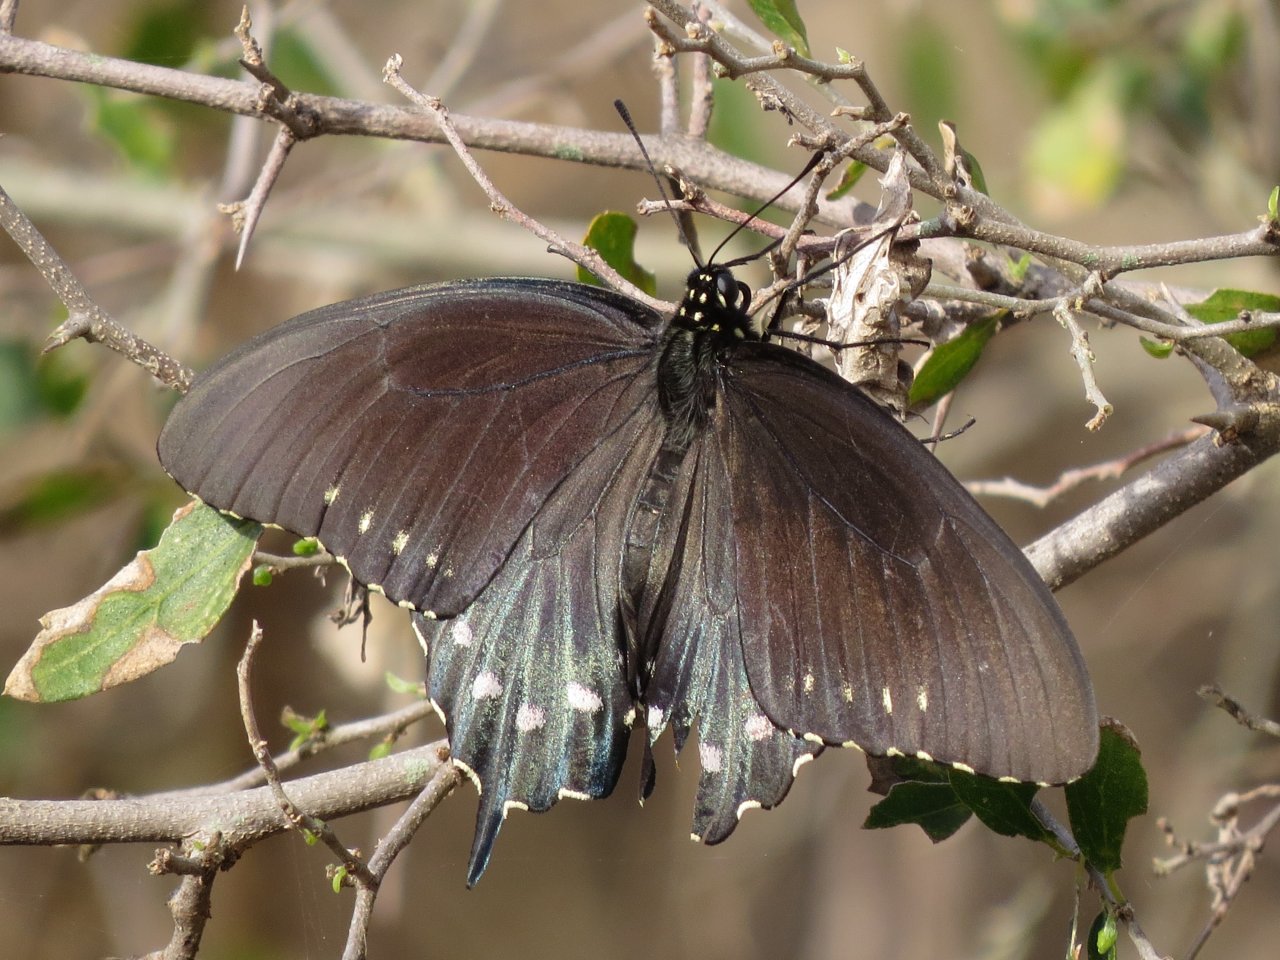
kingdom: Animalia
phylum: Arthropoda
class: Insecta
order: Lepidoptera
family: Papilionidae
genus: Battus
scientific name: Battus philenor
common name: Pipevine Swallowtail
